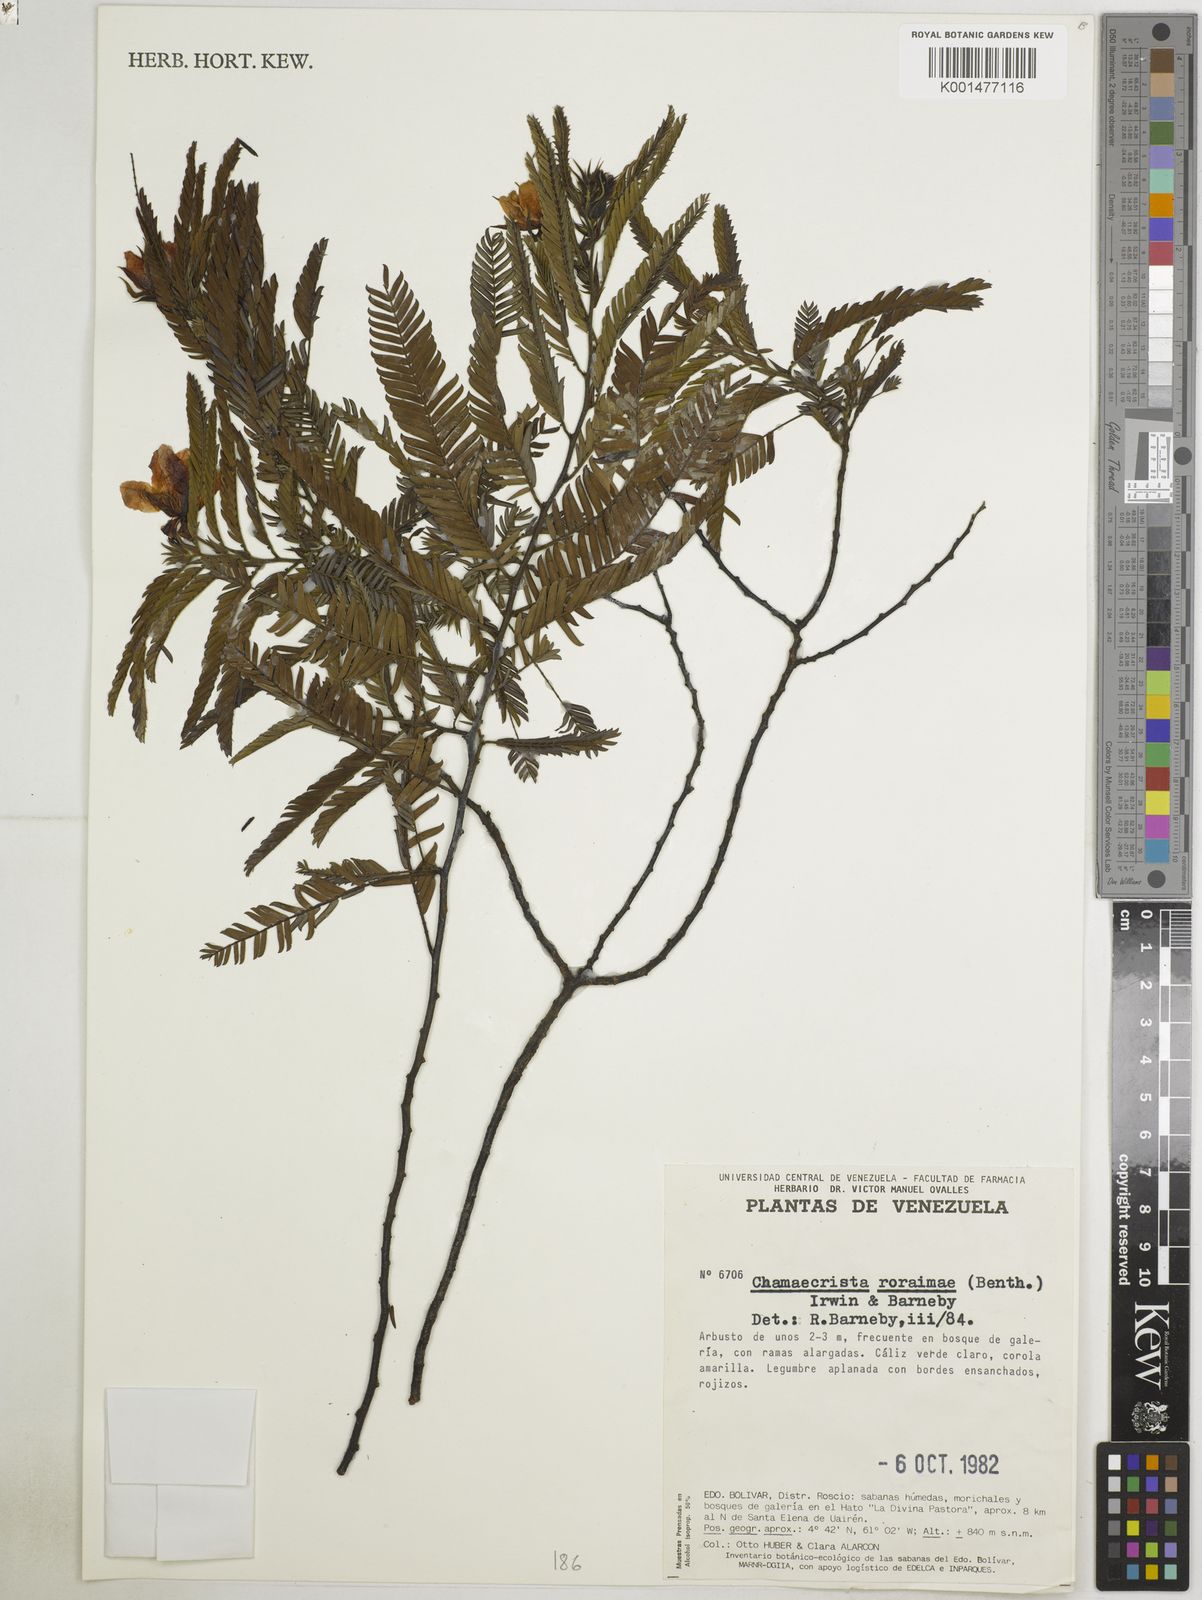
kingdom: Plantae
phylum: Tracheophyta
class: Magnoliopsida
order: Fabales
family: Fabaceae
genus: Chamaecrista
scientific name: Chamaecrista roraimae
